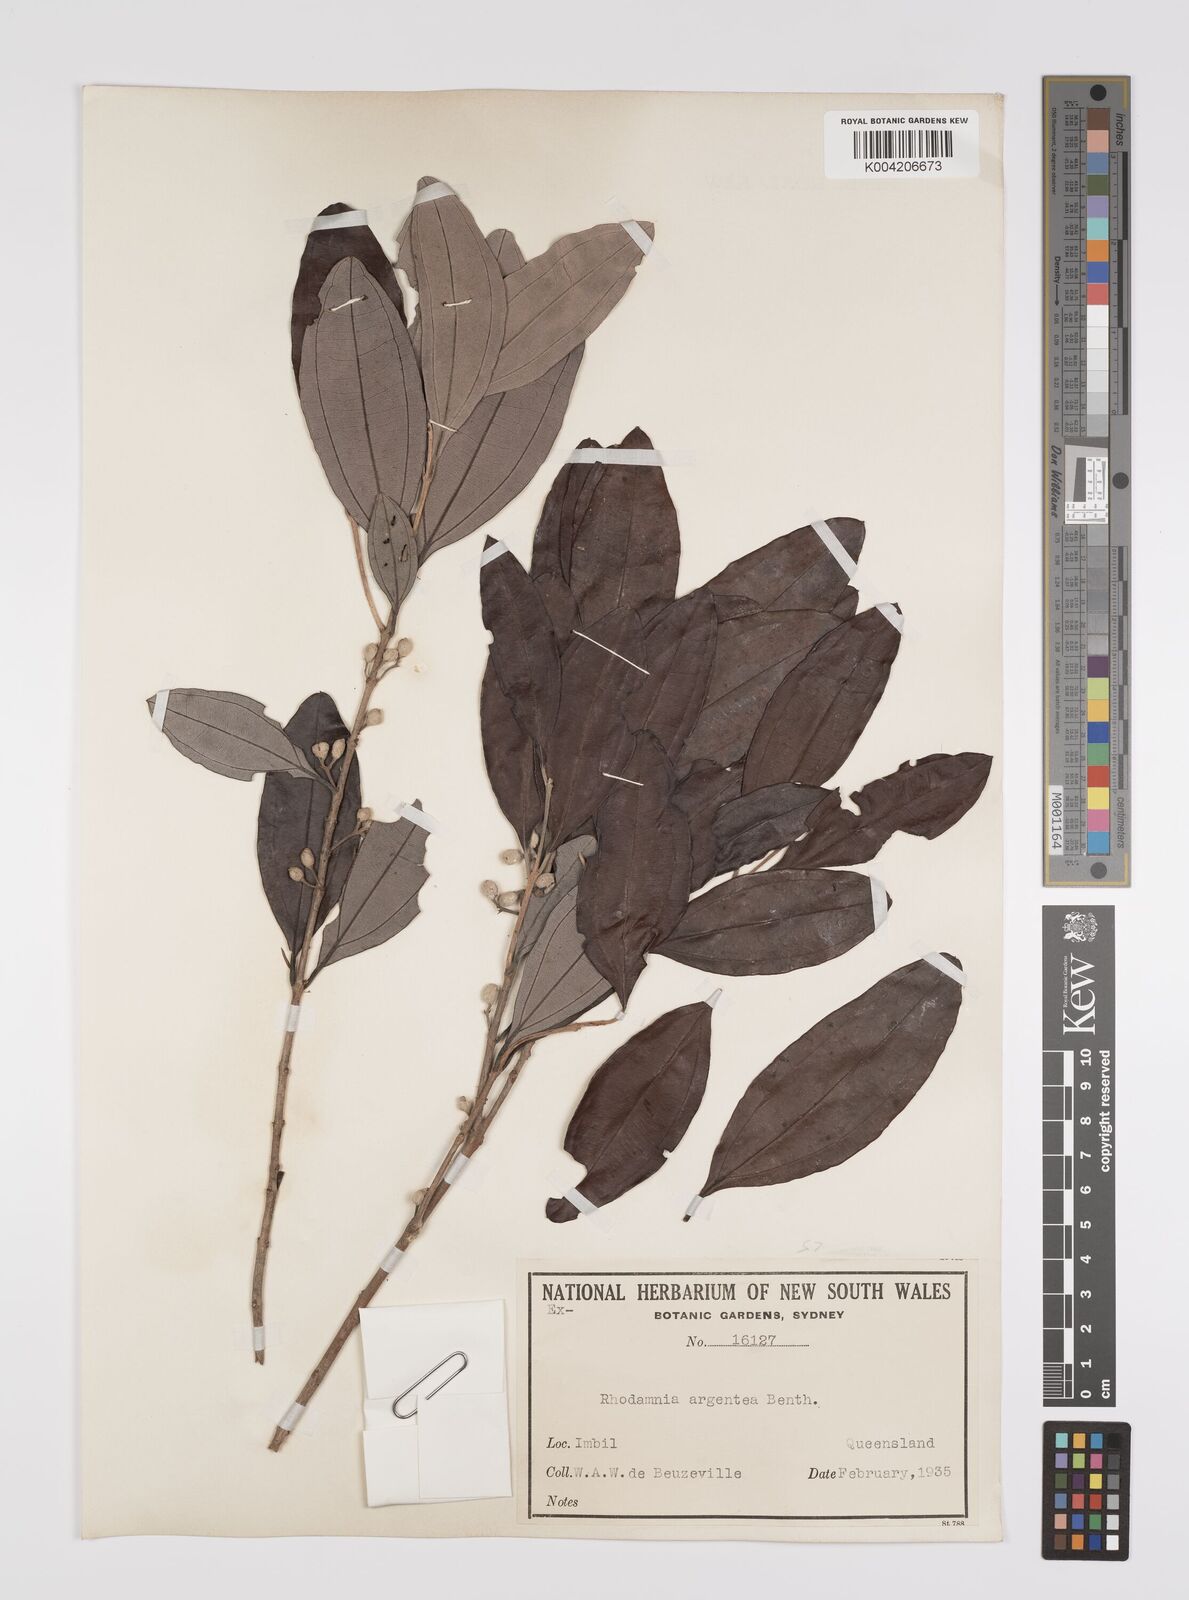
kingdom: Plantae
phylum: Tracheophyta
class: Magnoliopsida
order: Myrtales
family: Myrtaceae
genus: Rhodamnia
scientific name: Rhodamnia argentea
